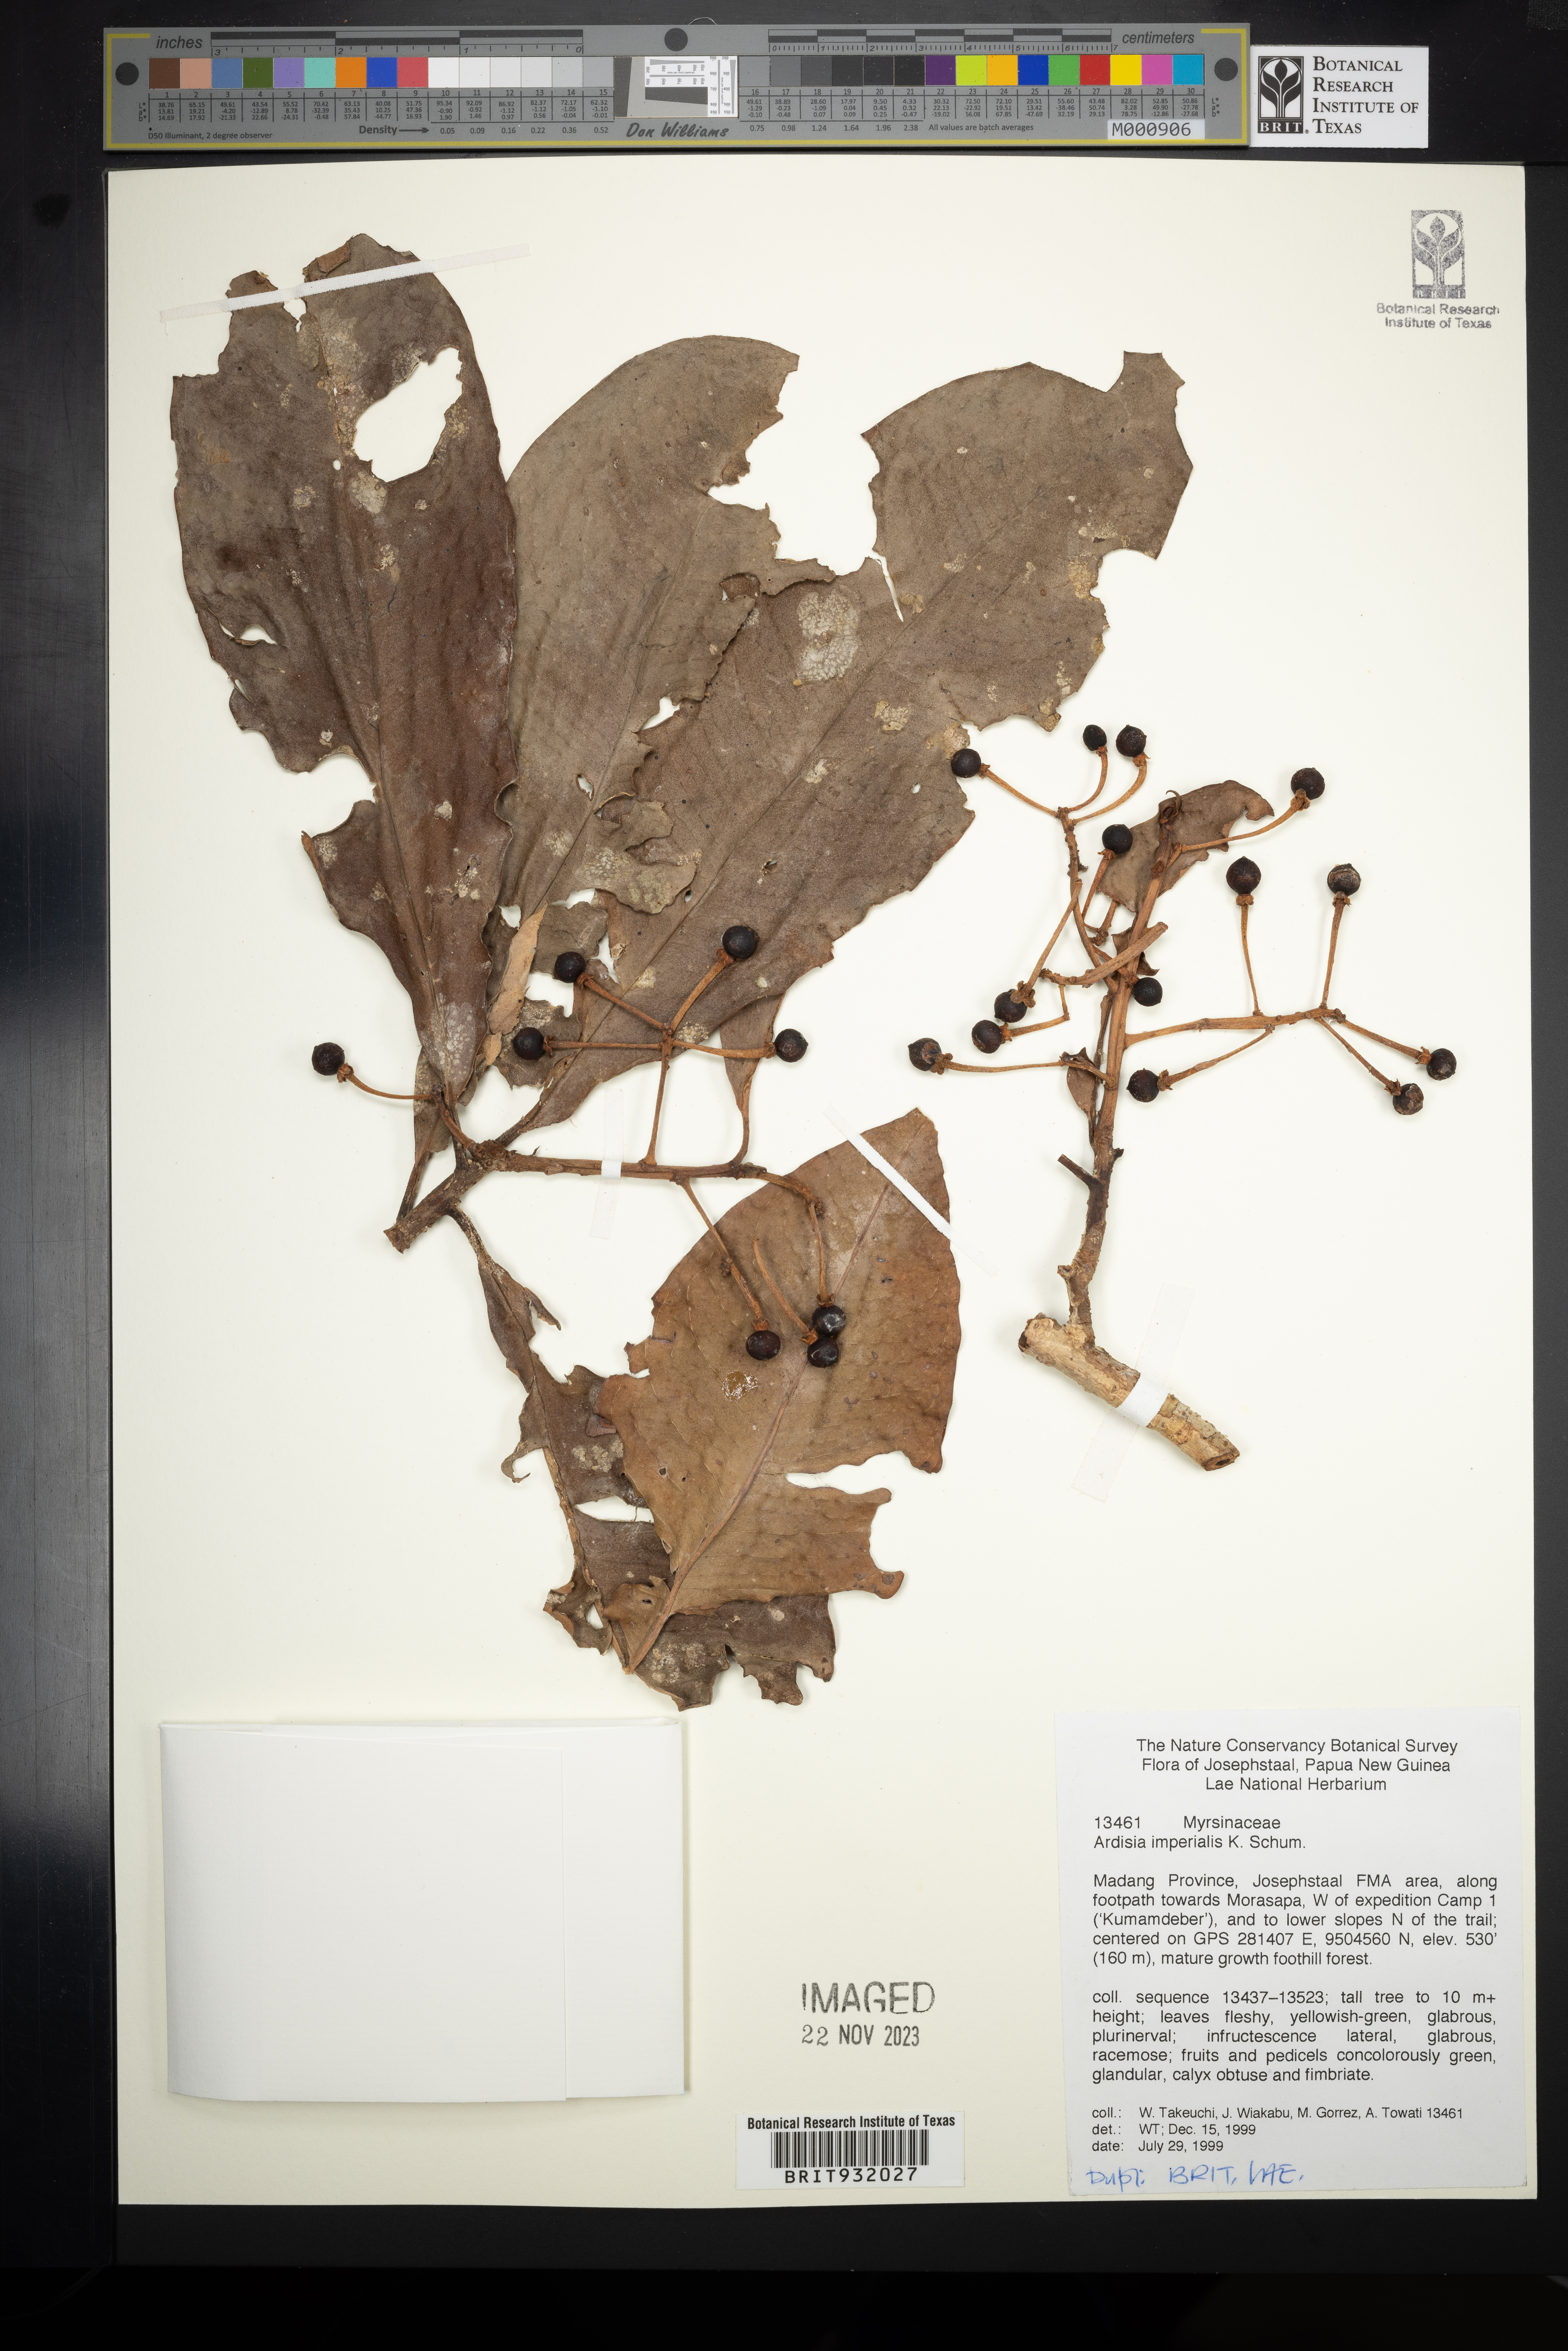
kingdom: Plantae
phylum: Tracheophyta
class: Magnoliopsida
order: Ericales
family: Primulaceae
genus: Ardisia
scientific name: Ardisia
